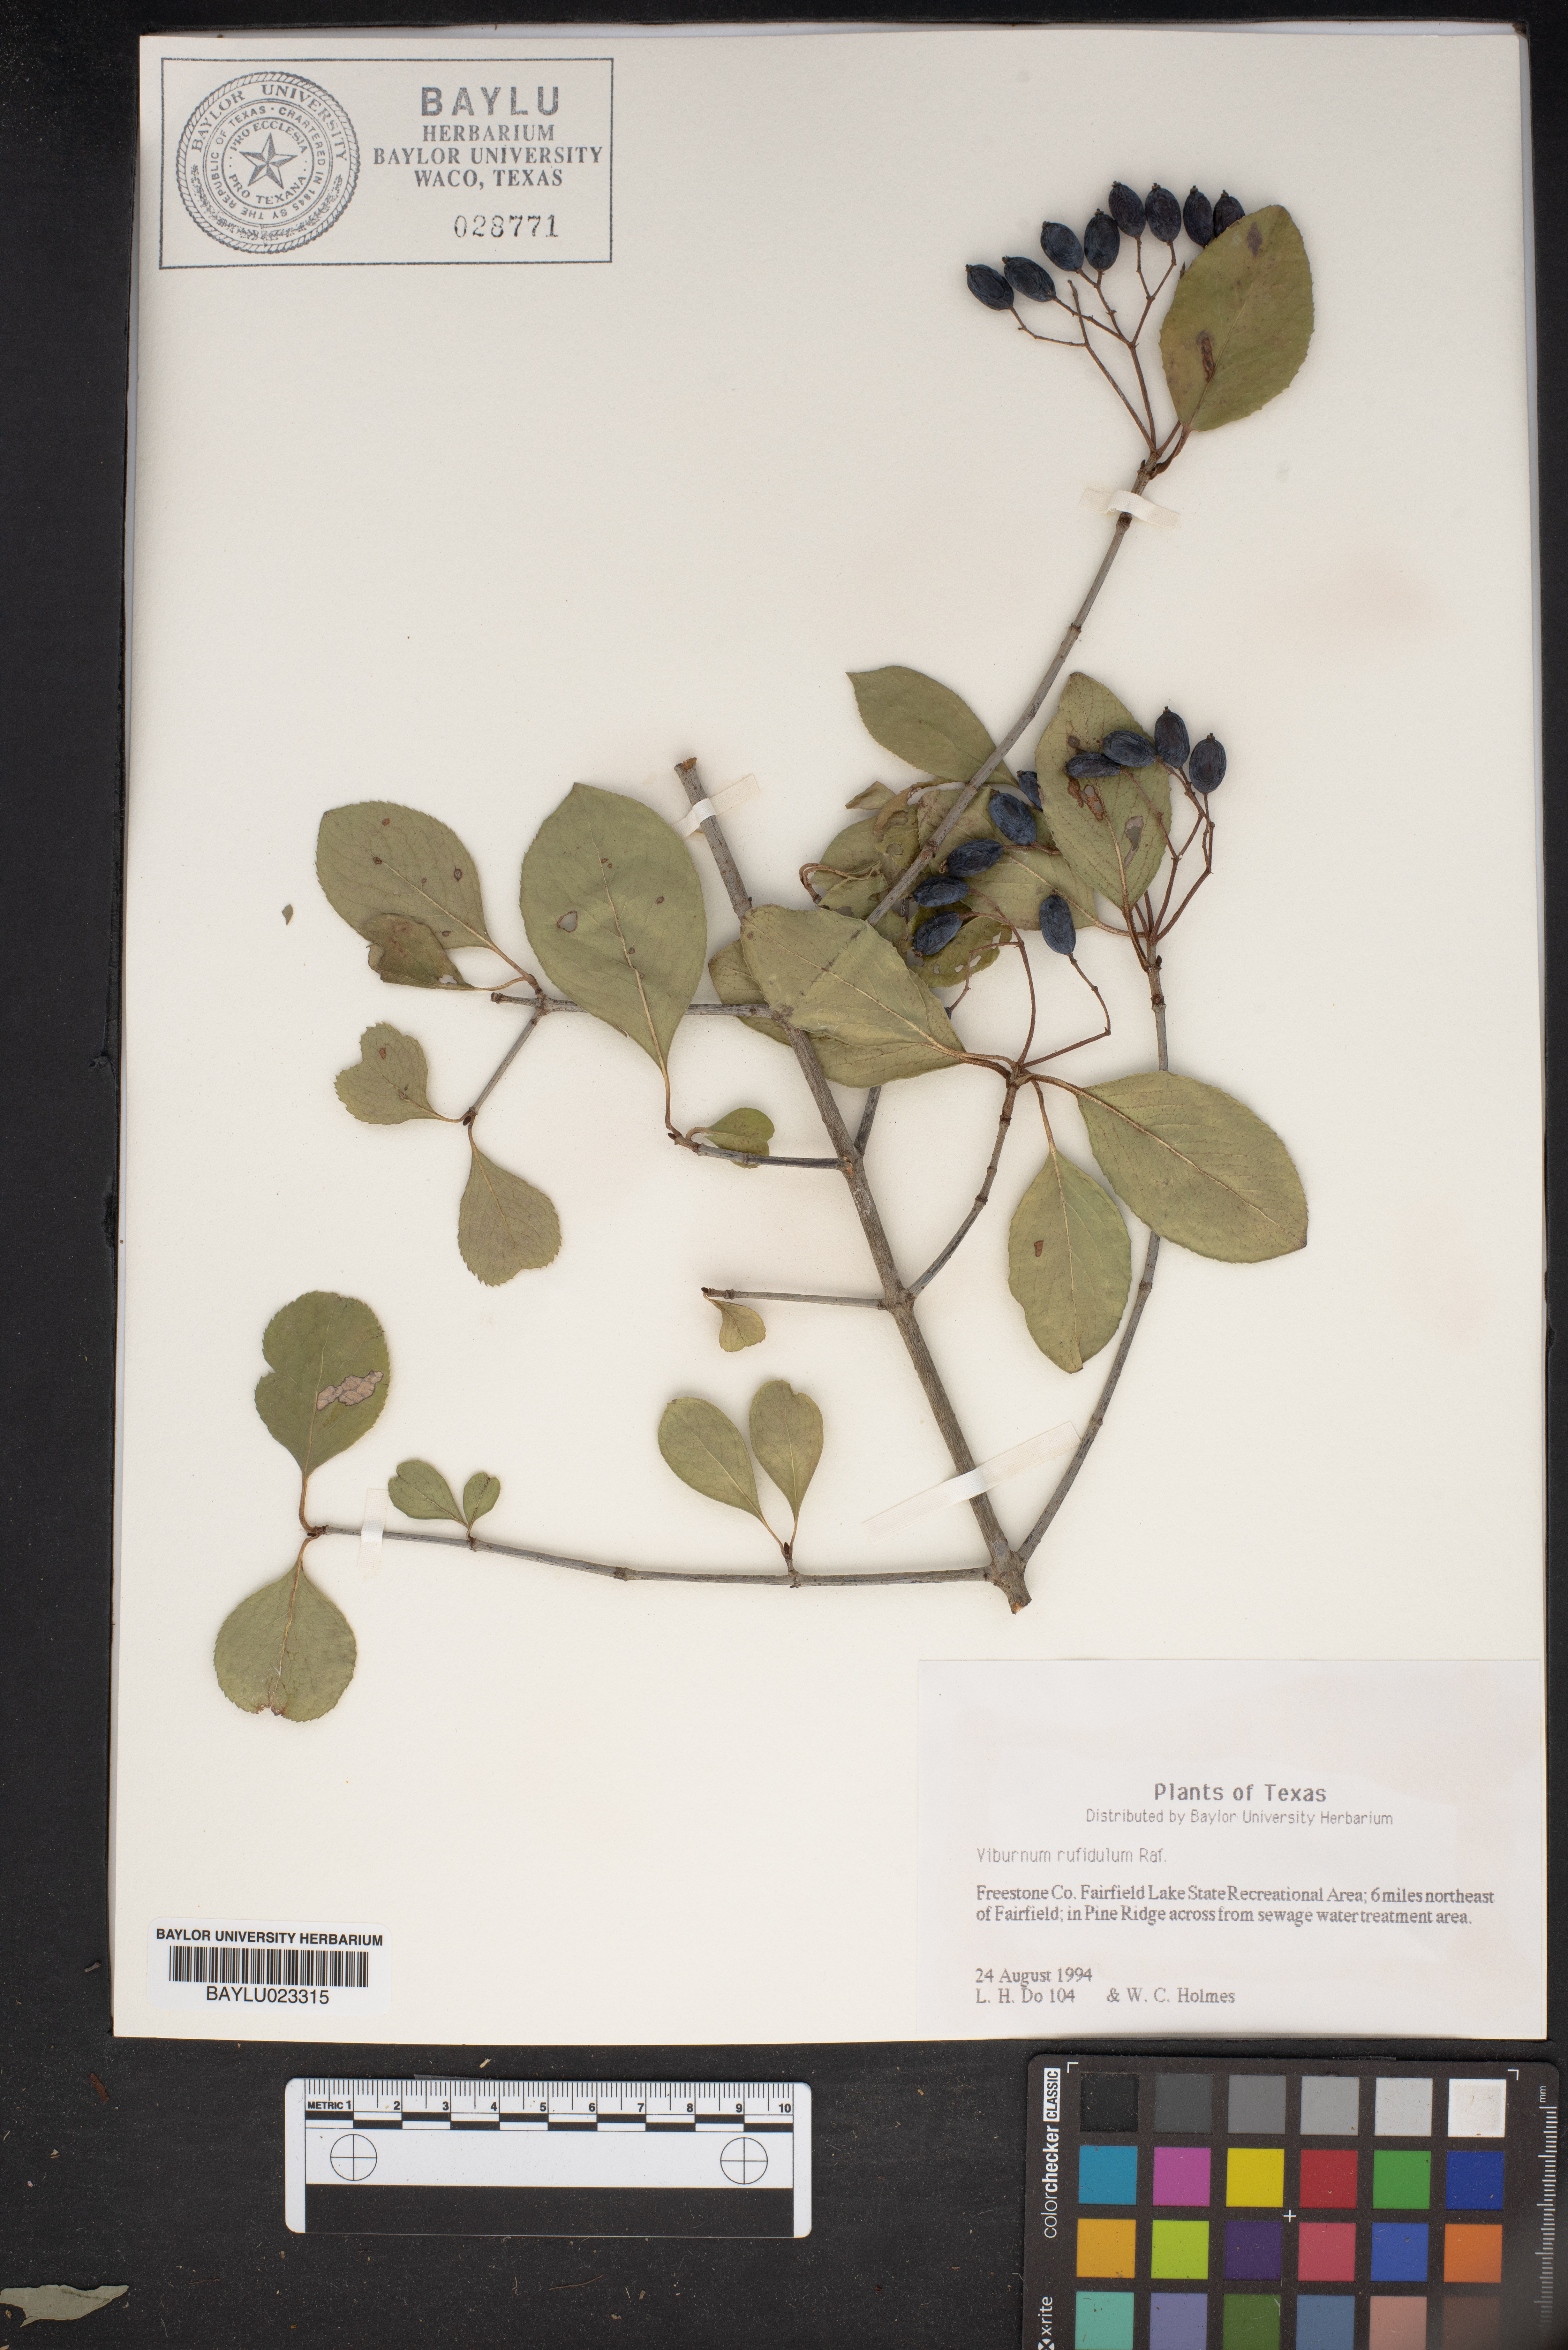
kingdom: Plantae
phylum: Tracheophyta
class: Magnoliopsida
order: Dipsacales
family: Viburnaceae
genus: Viburnum
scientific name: Viburnum rufidulum
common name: Blue haw
